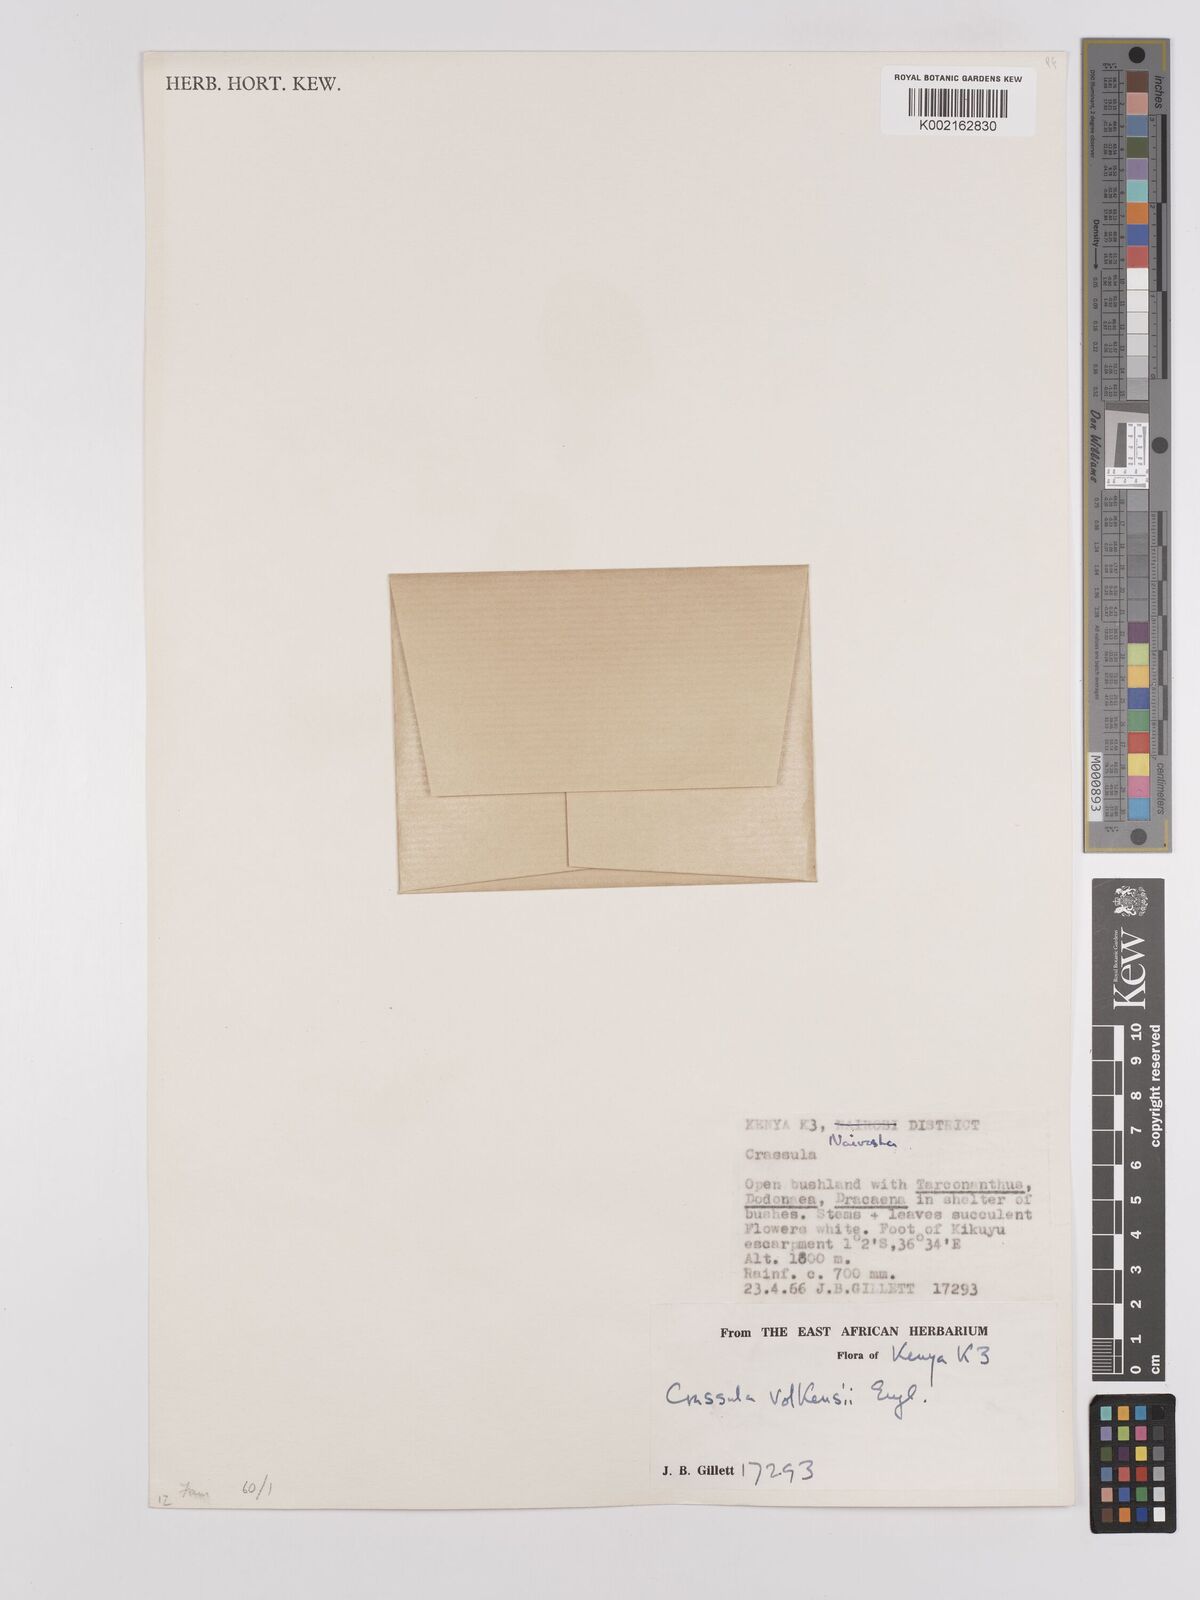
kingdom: Plantae
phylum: Tracheophyta
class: Magnoliopsida
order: Saxifragales
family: Crassulaceae
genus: Crassula
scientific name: Crassula volkensii
